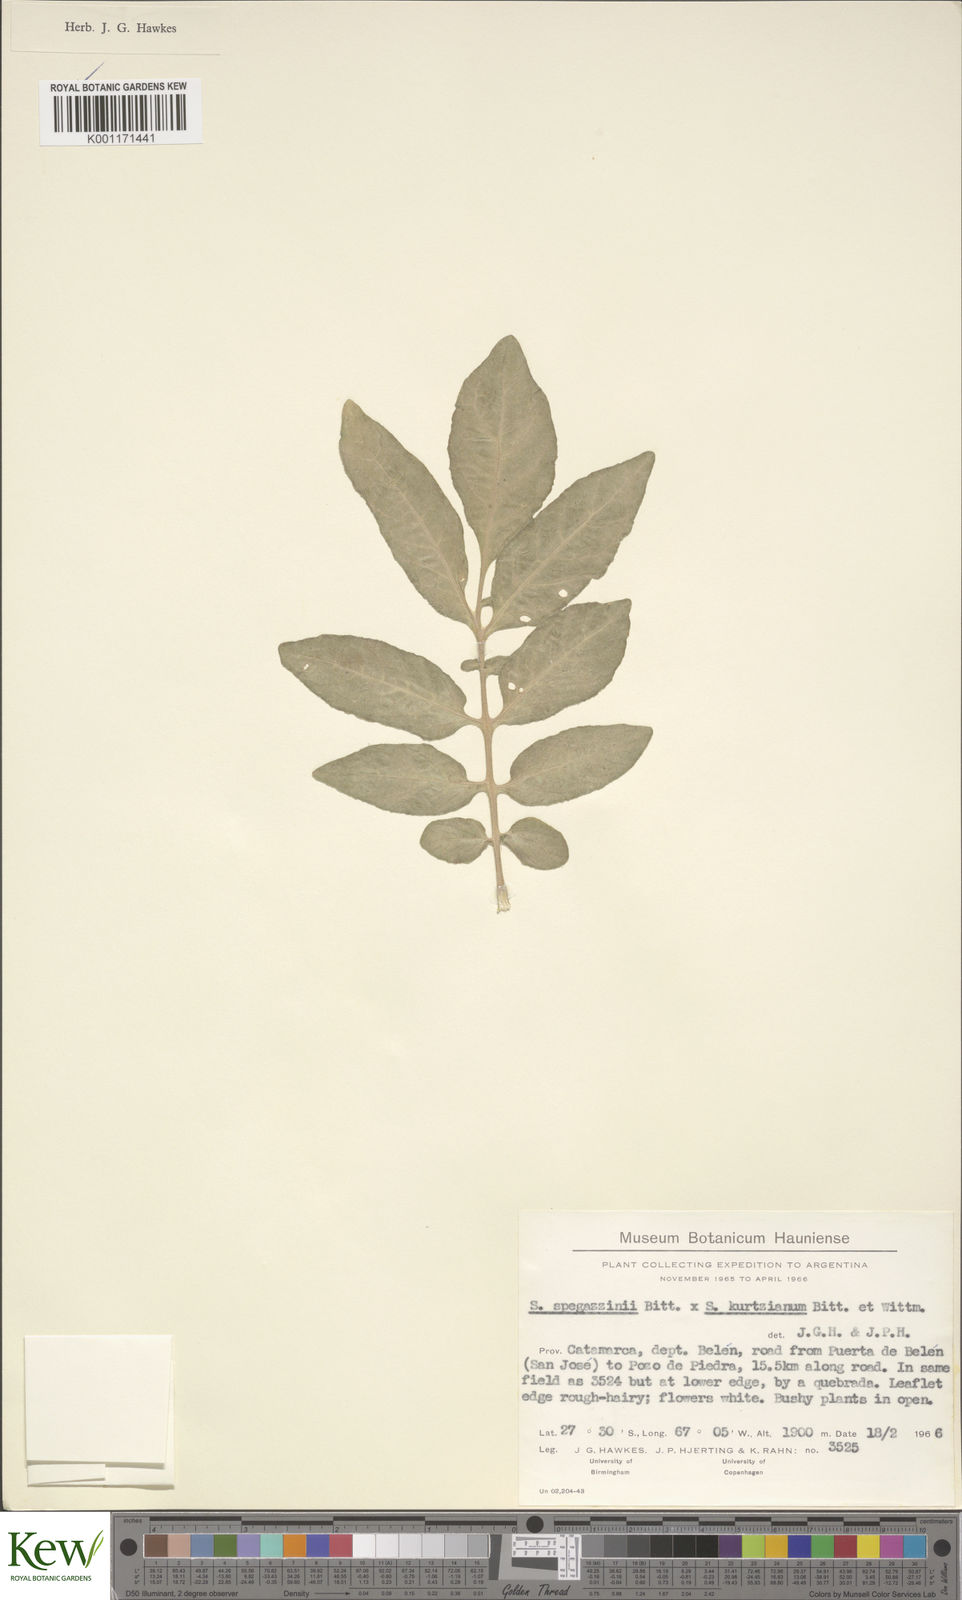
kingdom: Plantae
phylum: Tracheophyta
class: Magnoliopsida
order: Solanales
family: Solanaceae
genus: Solanum
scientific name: Solanum brevicaule
